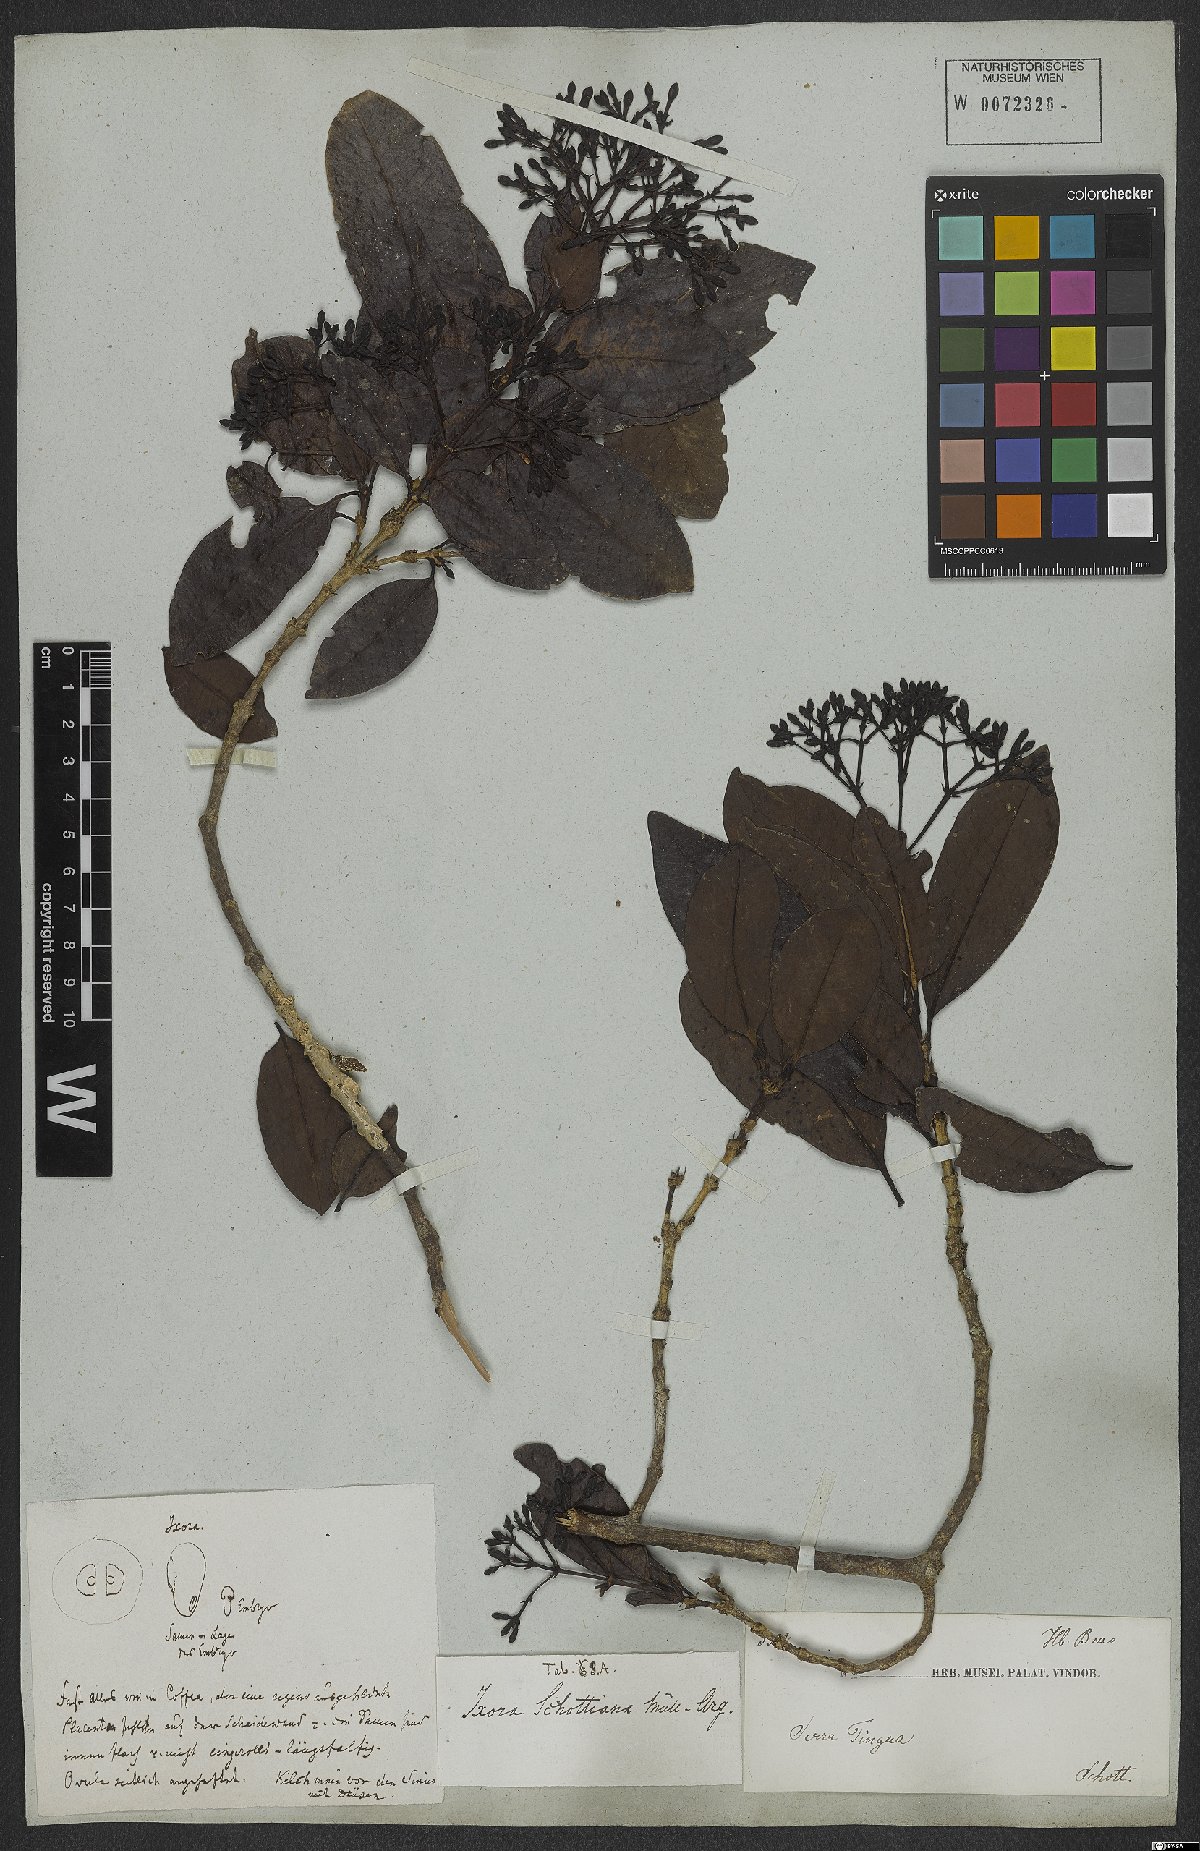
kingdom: Plantae
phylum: Tracheophyta
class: Magnoliopsida
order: Gentianales
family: Rubiaceae
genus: Ixora
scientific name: Ixora gardneriana
